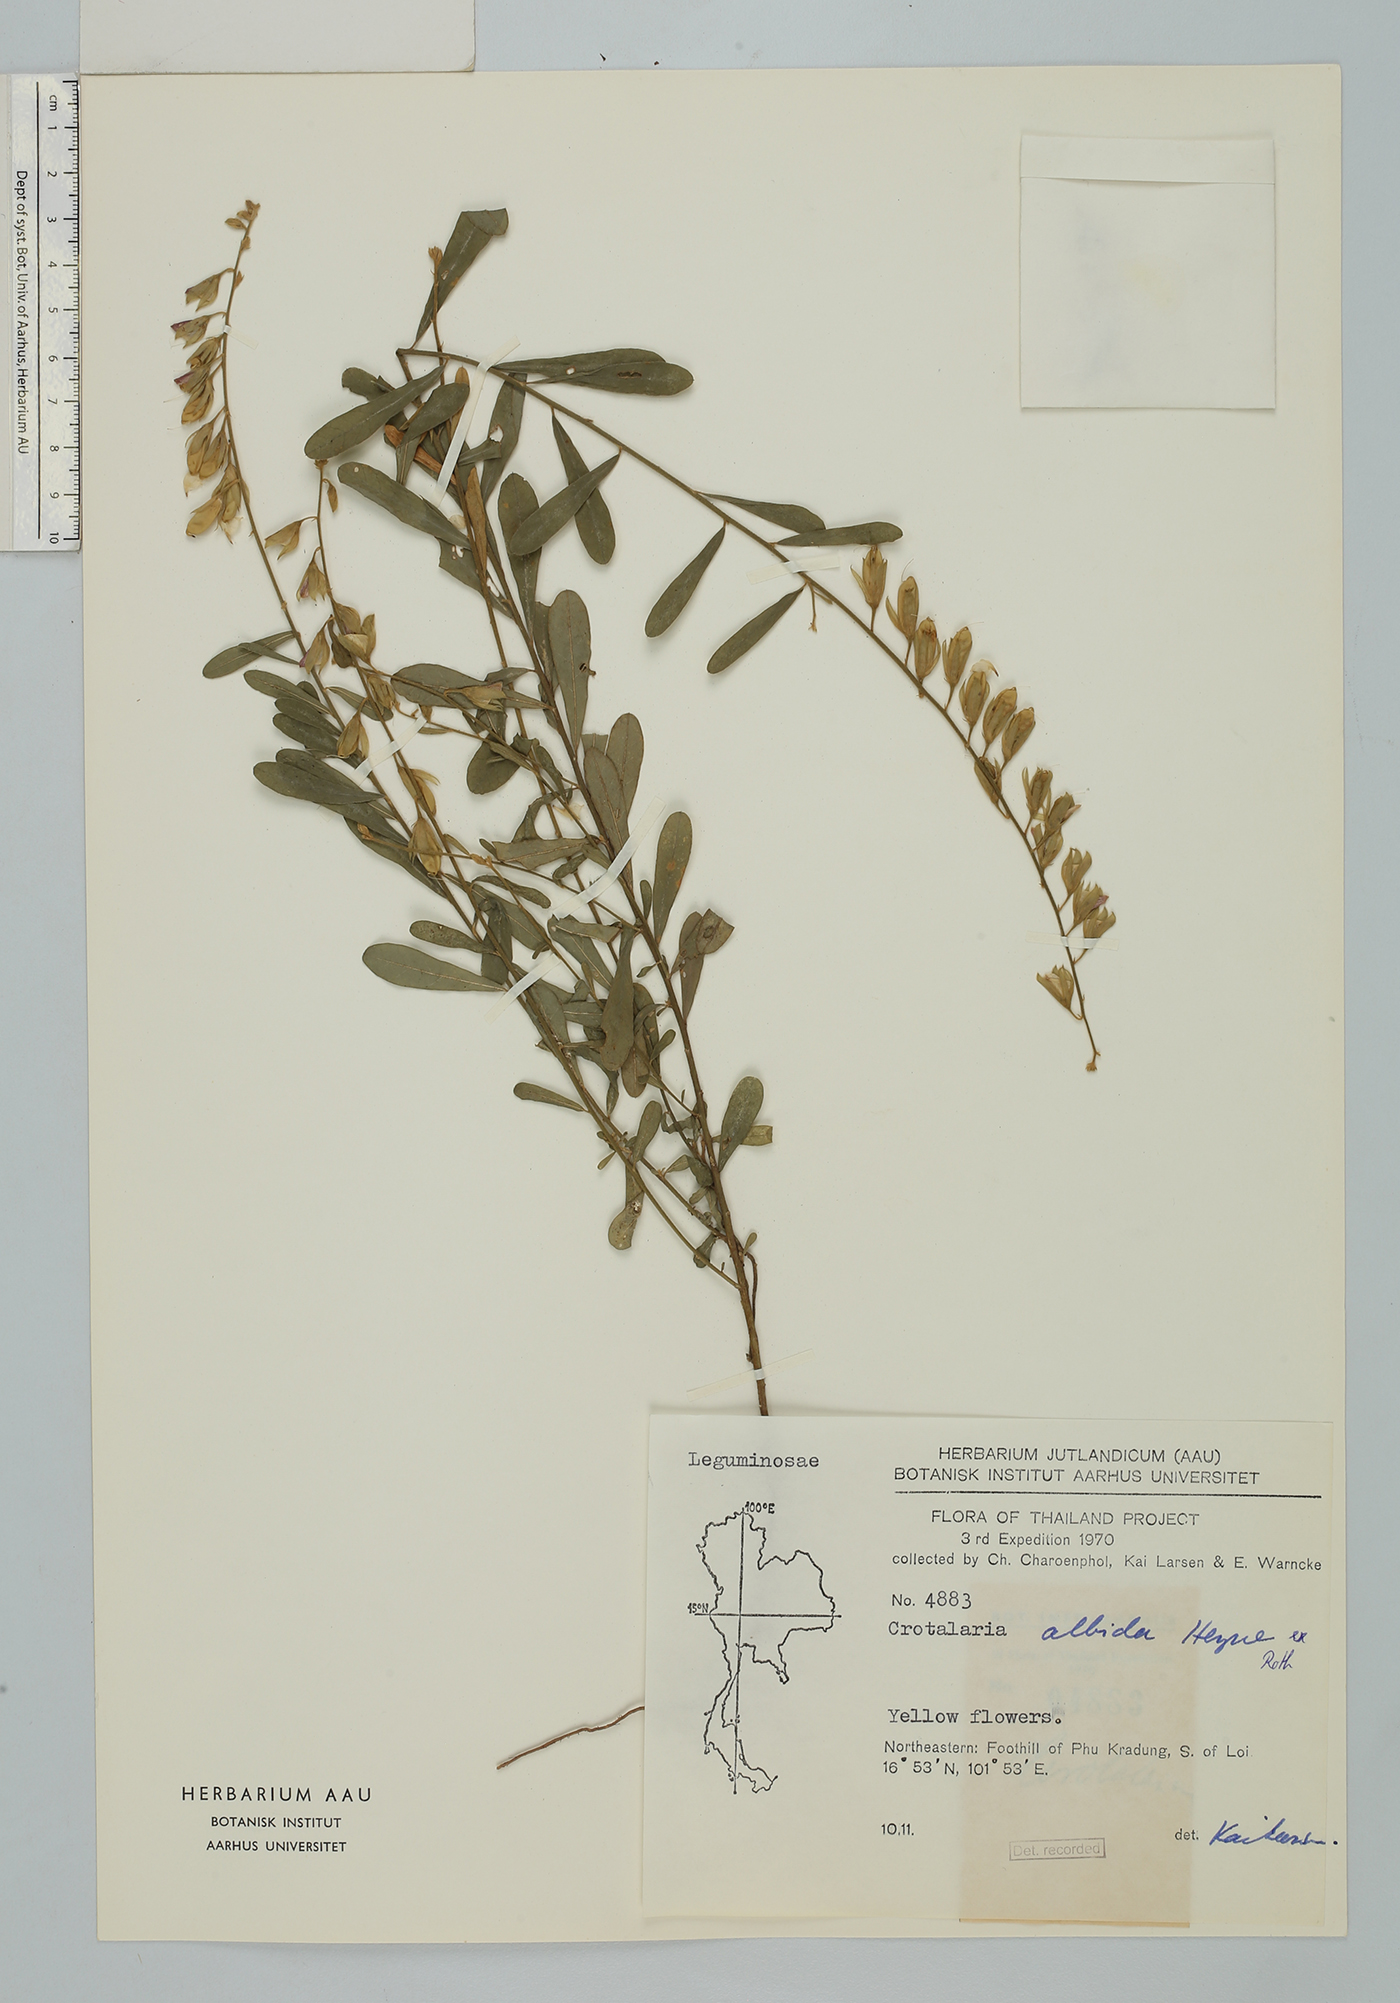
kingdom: Plantae
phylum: Tracheophyta
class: Magnoliopsida
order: Fabales
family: Fabaceae
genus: Crotalaria
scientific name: Crotalaria albida
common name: Taiwan crotalaria
